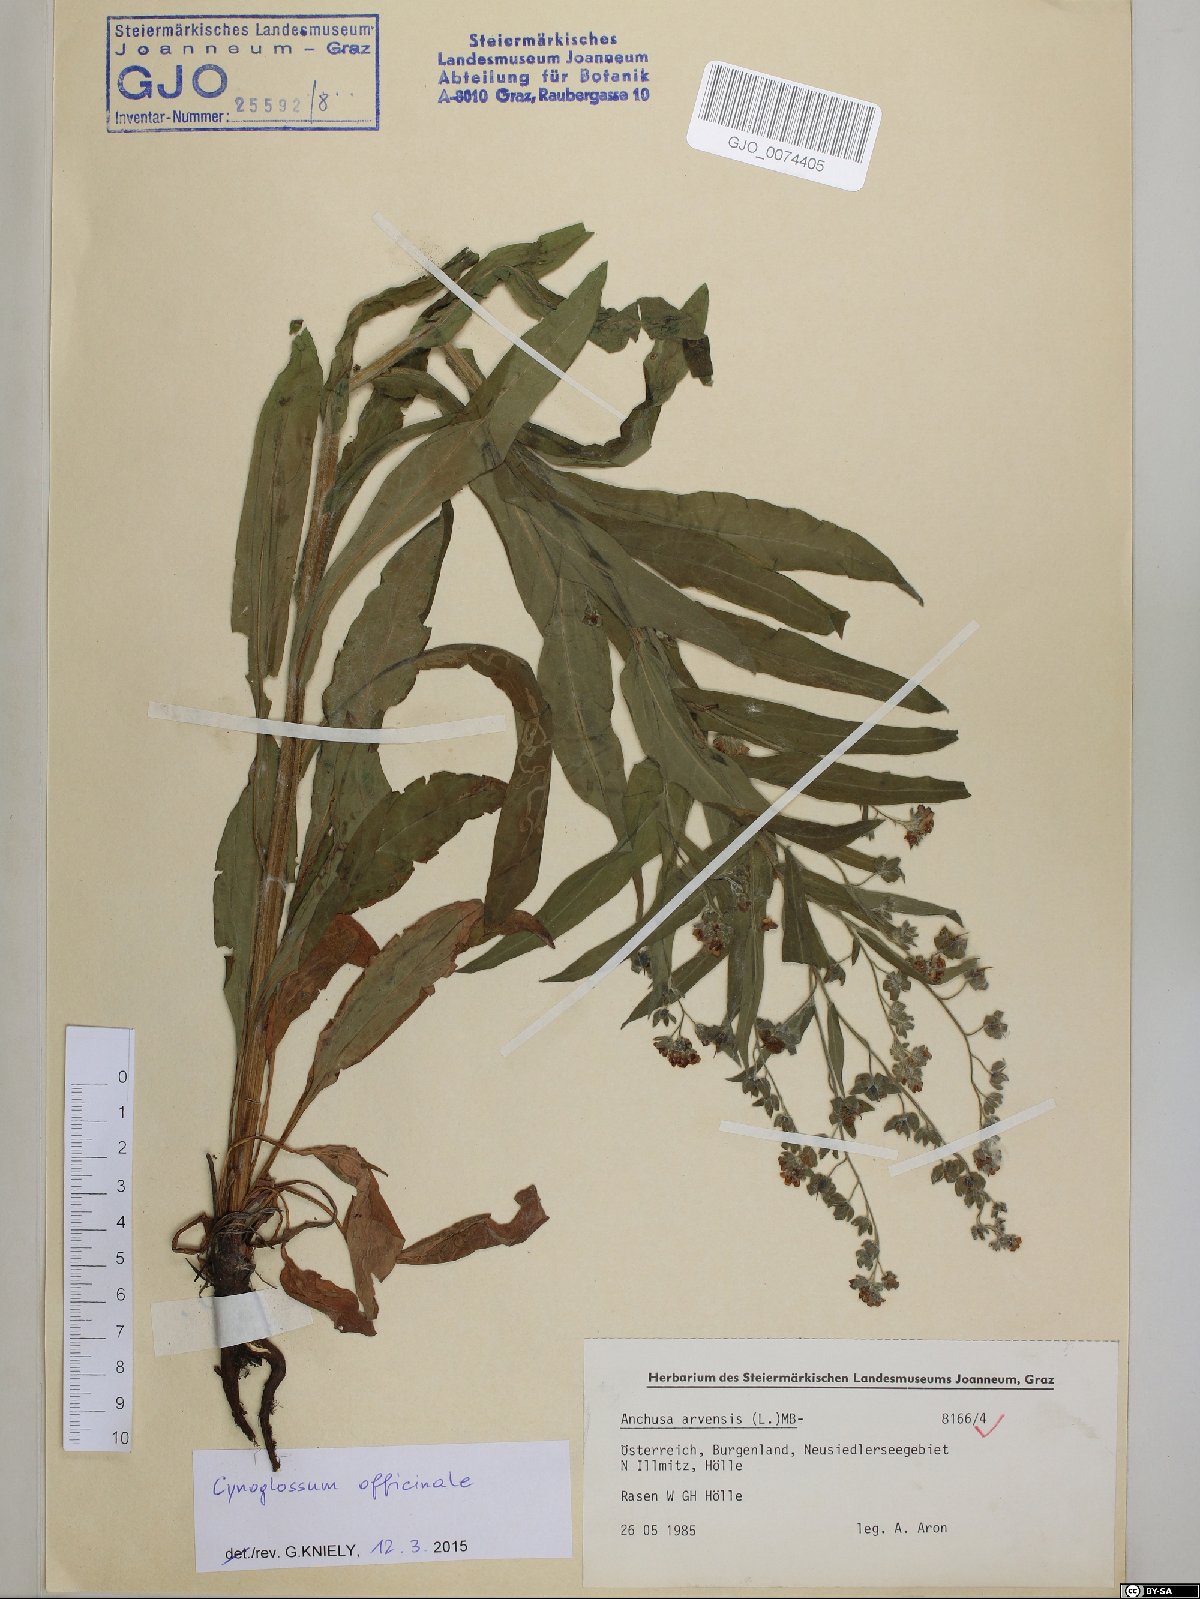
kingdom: Plantae
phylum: Tracheophyta
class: Magnoliopsida
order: Boraginales
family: Boraginaceae
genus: Cynoglossum
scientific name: Cynoglossum officinale
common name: Hound's-tongue
